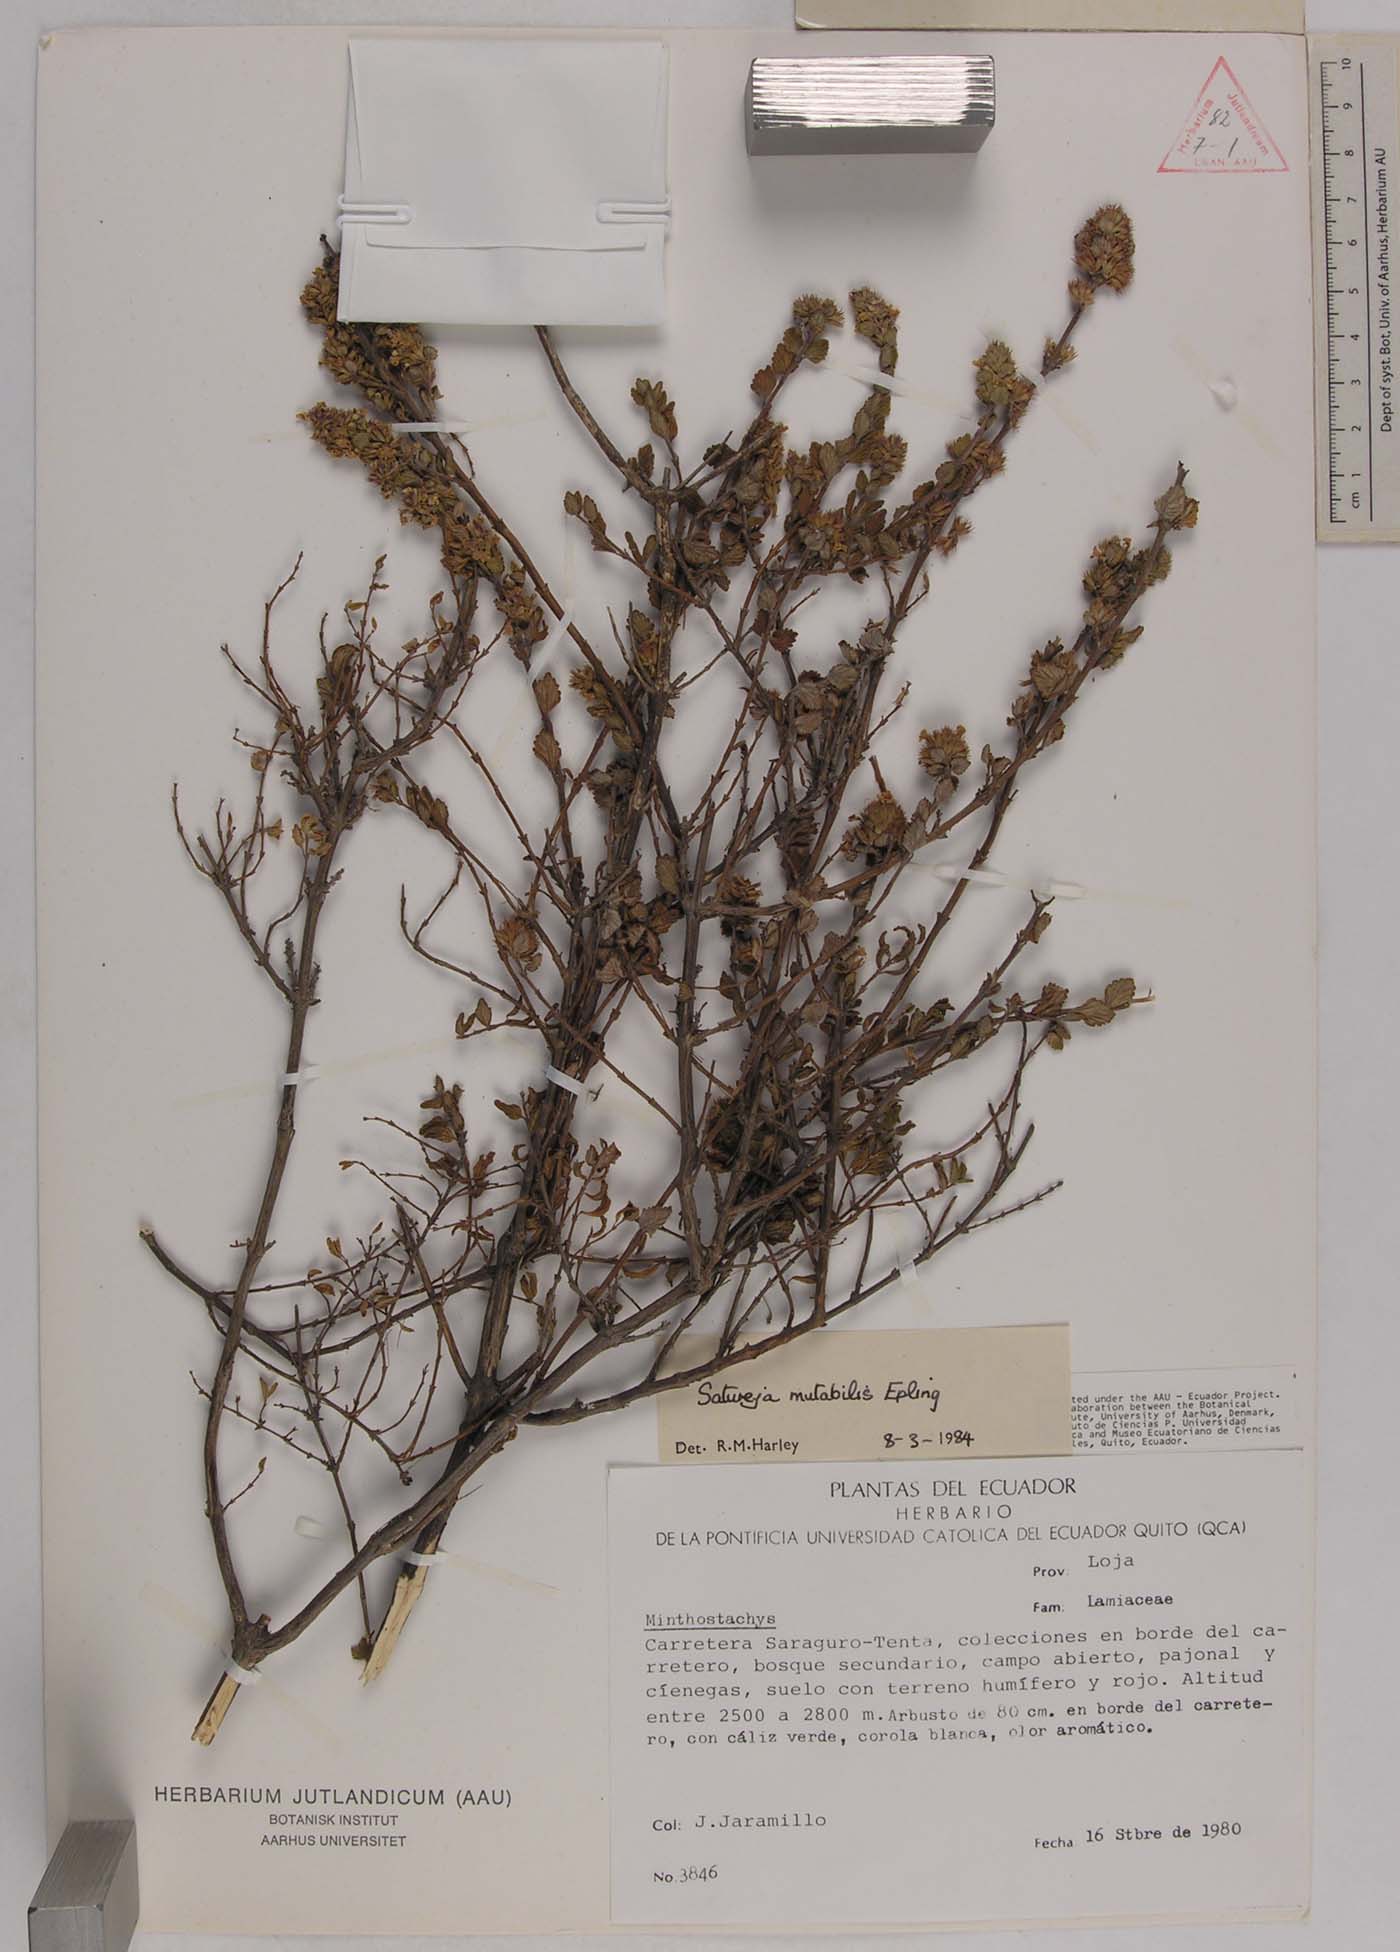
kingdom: Plantae
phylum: Tracheophyta
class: Magnoliopsida
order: Lamiales
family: Lamiaceae
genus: Clinopodium
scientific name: Clinopodium mutabile
